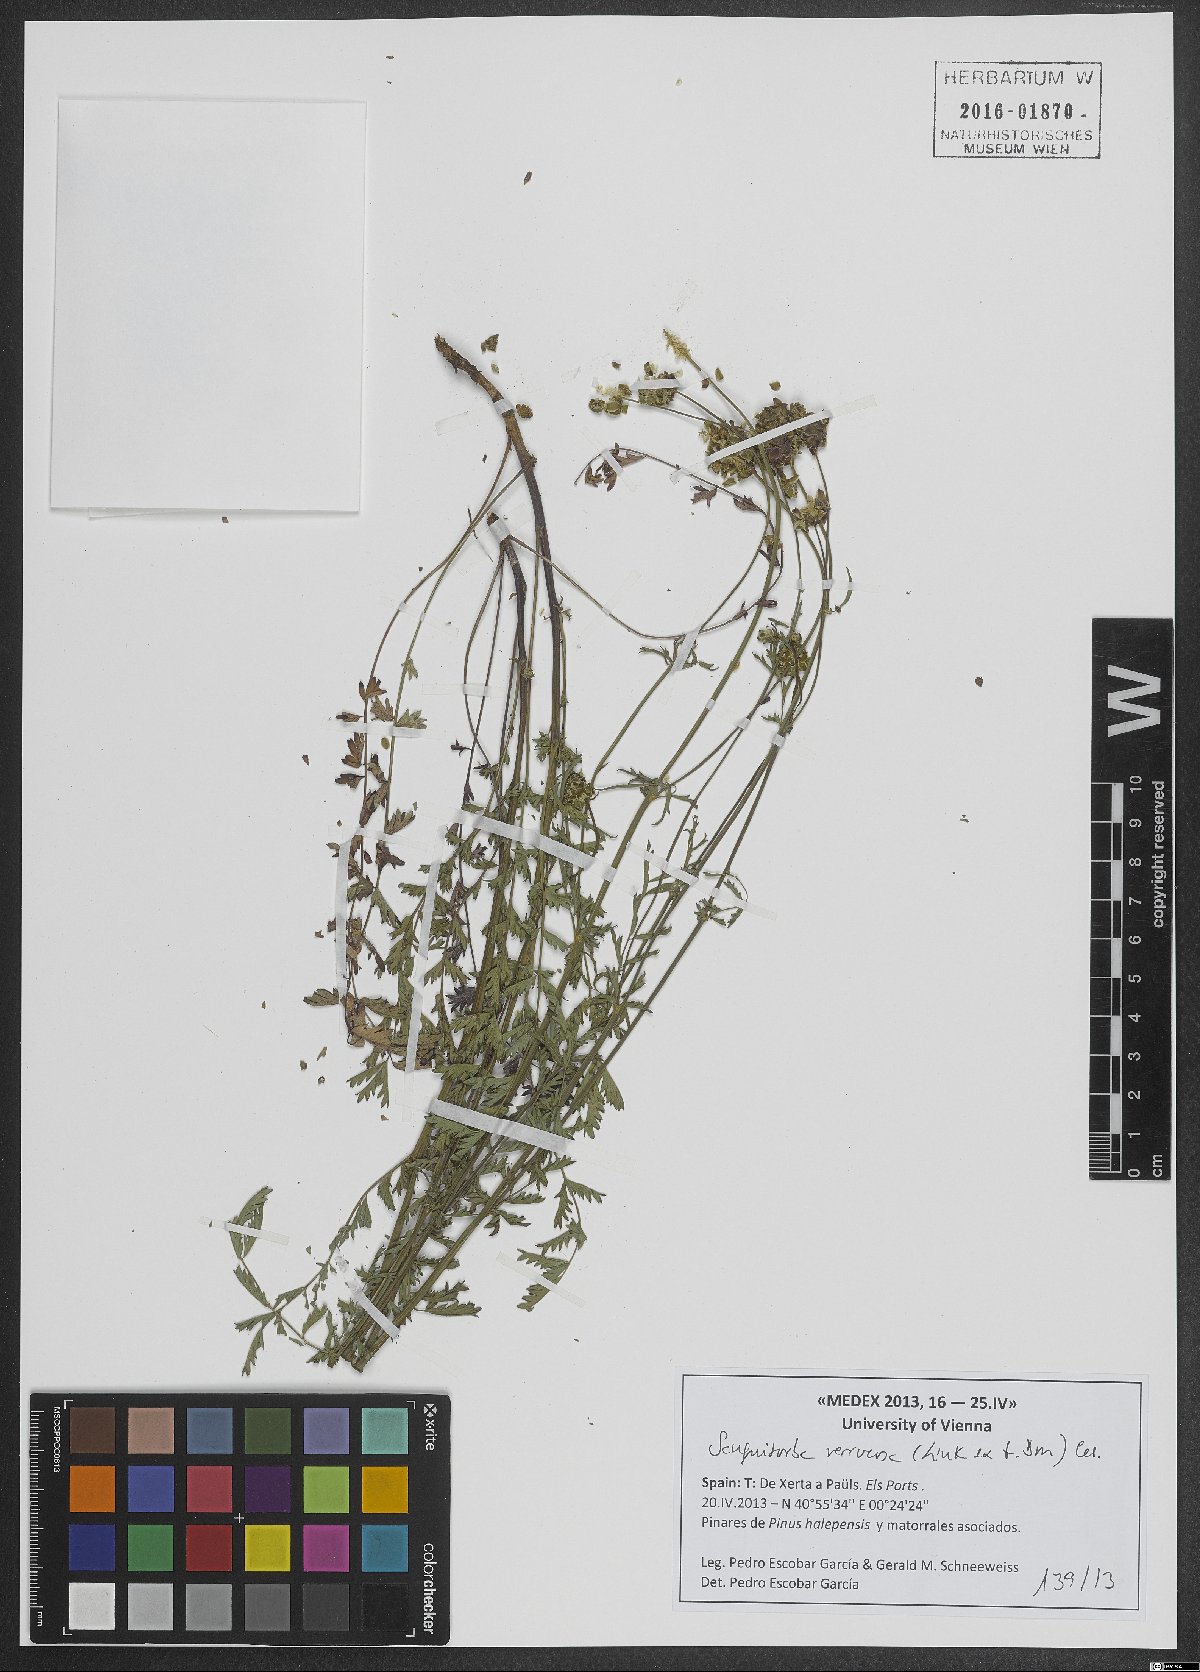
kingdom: Plantae
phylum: Tracheophyta
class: Magnoliopsida
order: Rosales
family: Rosaceae
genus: Poterium
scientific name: Poterium verrucosum
